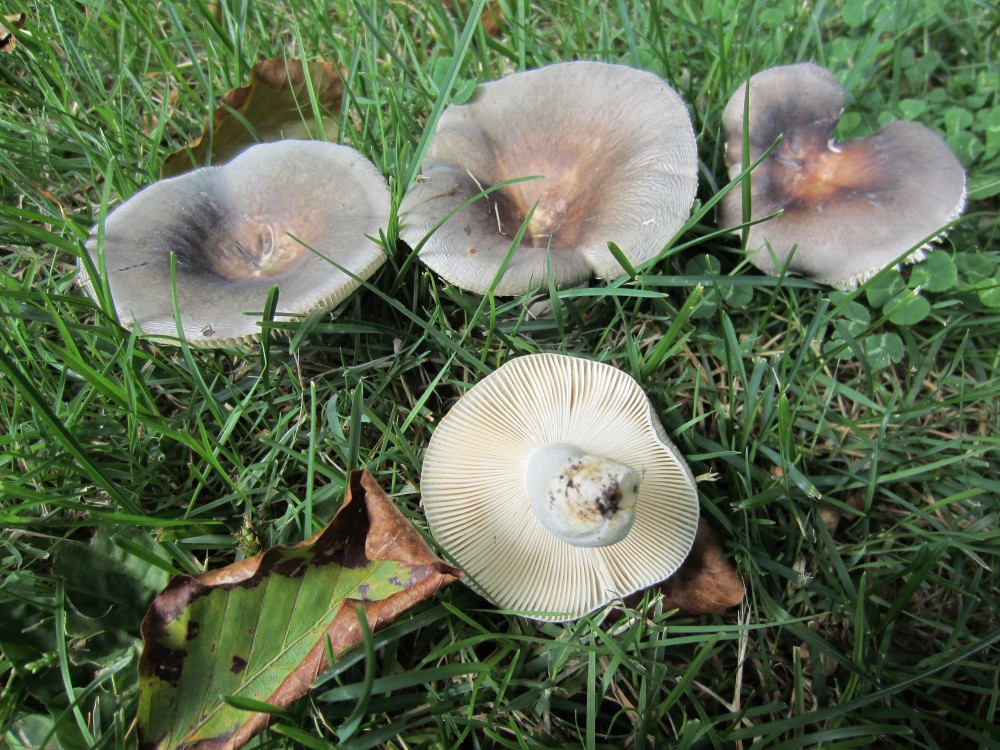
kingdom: Fungi
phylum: Basidiomycota
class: Agaricomycetes
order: Russulales
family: Russulaceae
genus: Russula
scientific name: Russula grisea
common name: grålig skørhat
